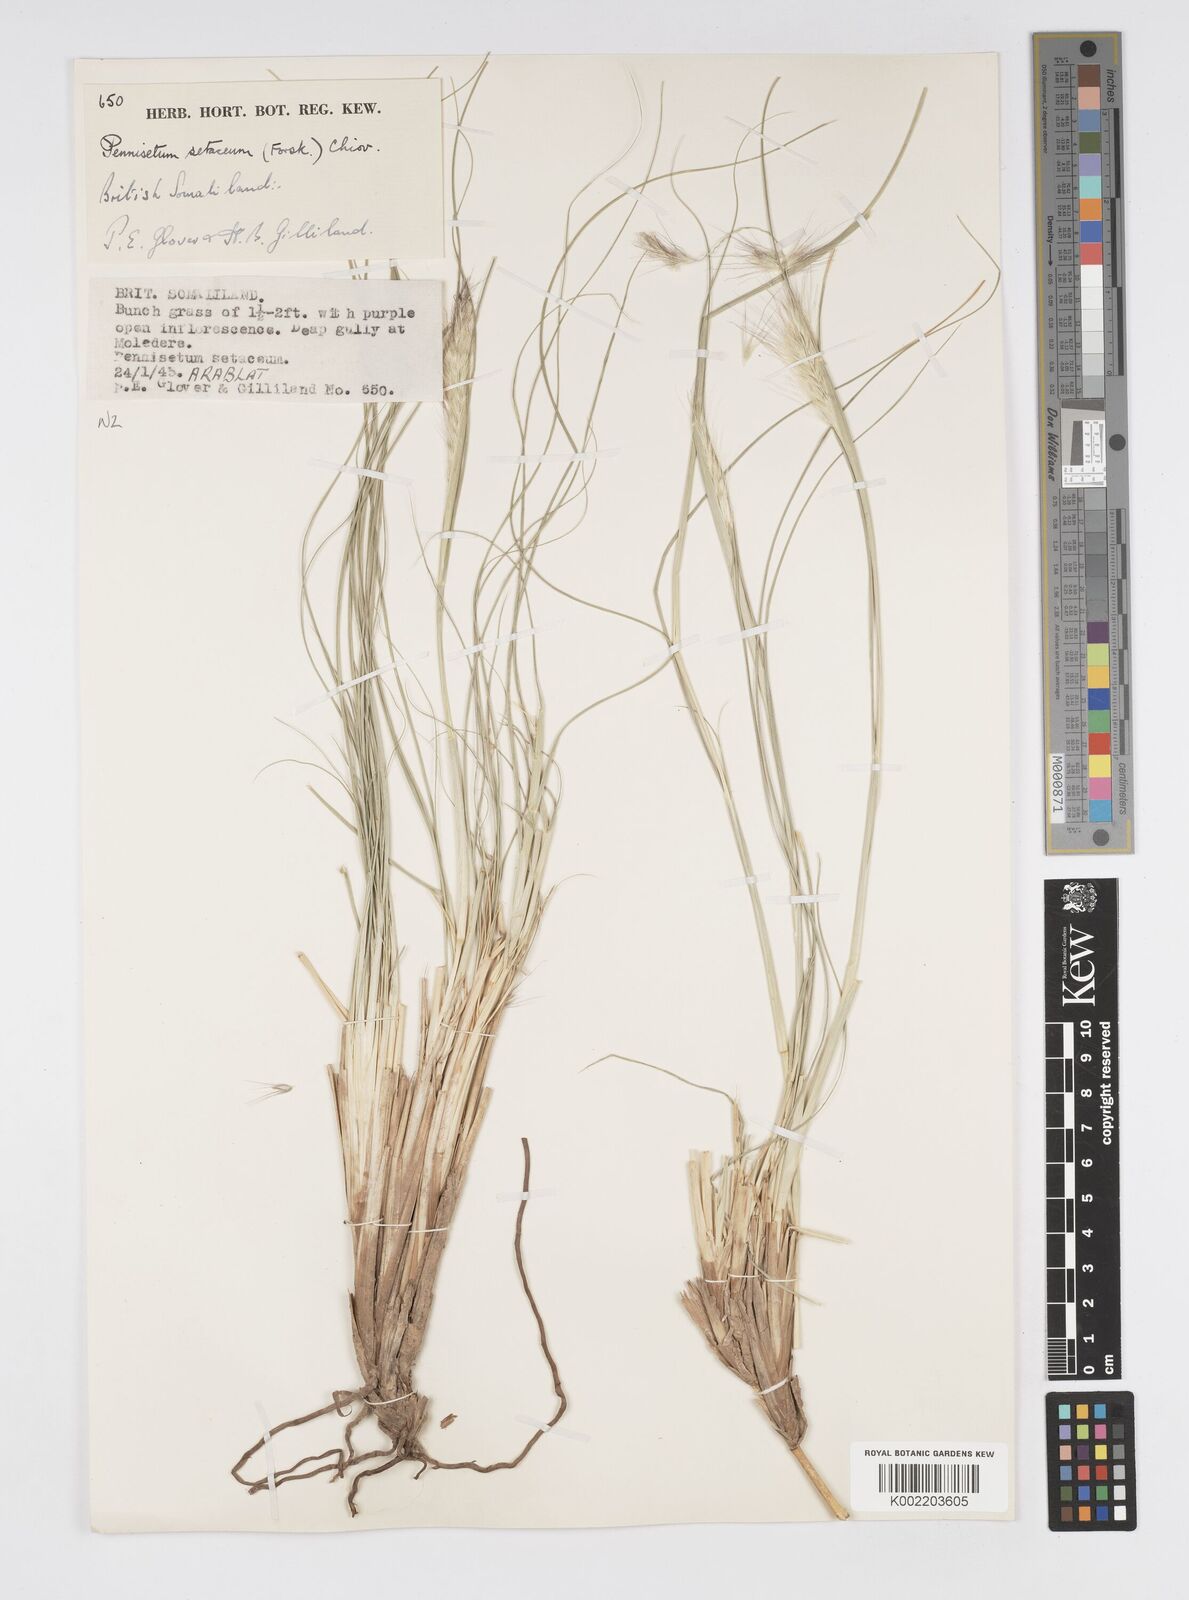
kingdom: Plantae
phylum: Tracheophyta
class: Liliopsida
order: Poales
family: Poaceae
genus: Cenchrus
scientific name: Cenchrus setaceus
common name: Crimson fountaingrass
